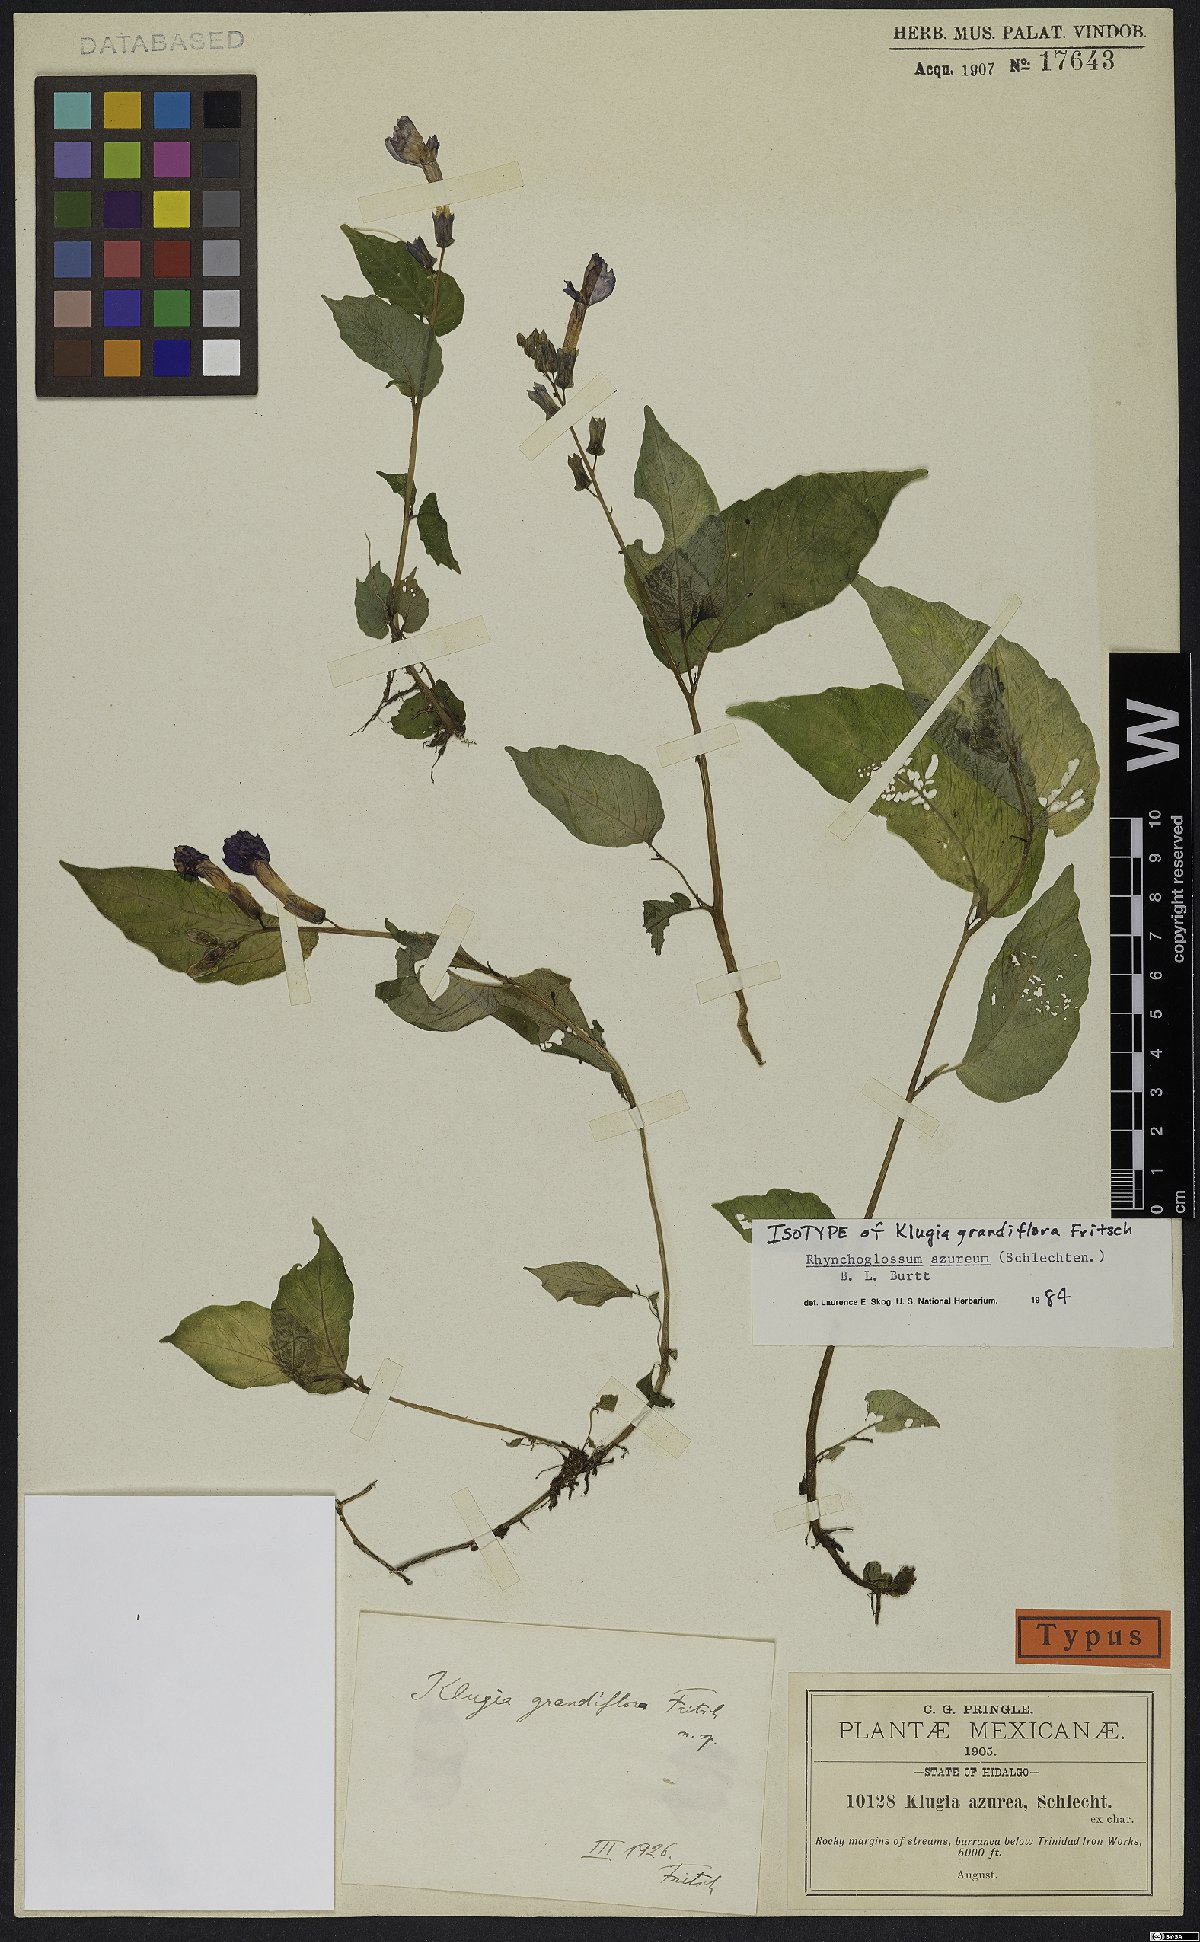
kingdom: Plantae
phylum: Tracheophyta
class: Magnoliopsida
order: Lamiales
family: Gesneriaceae
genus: Rhynchoglossum
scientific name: Rhynchoglossum azureum
